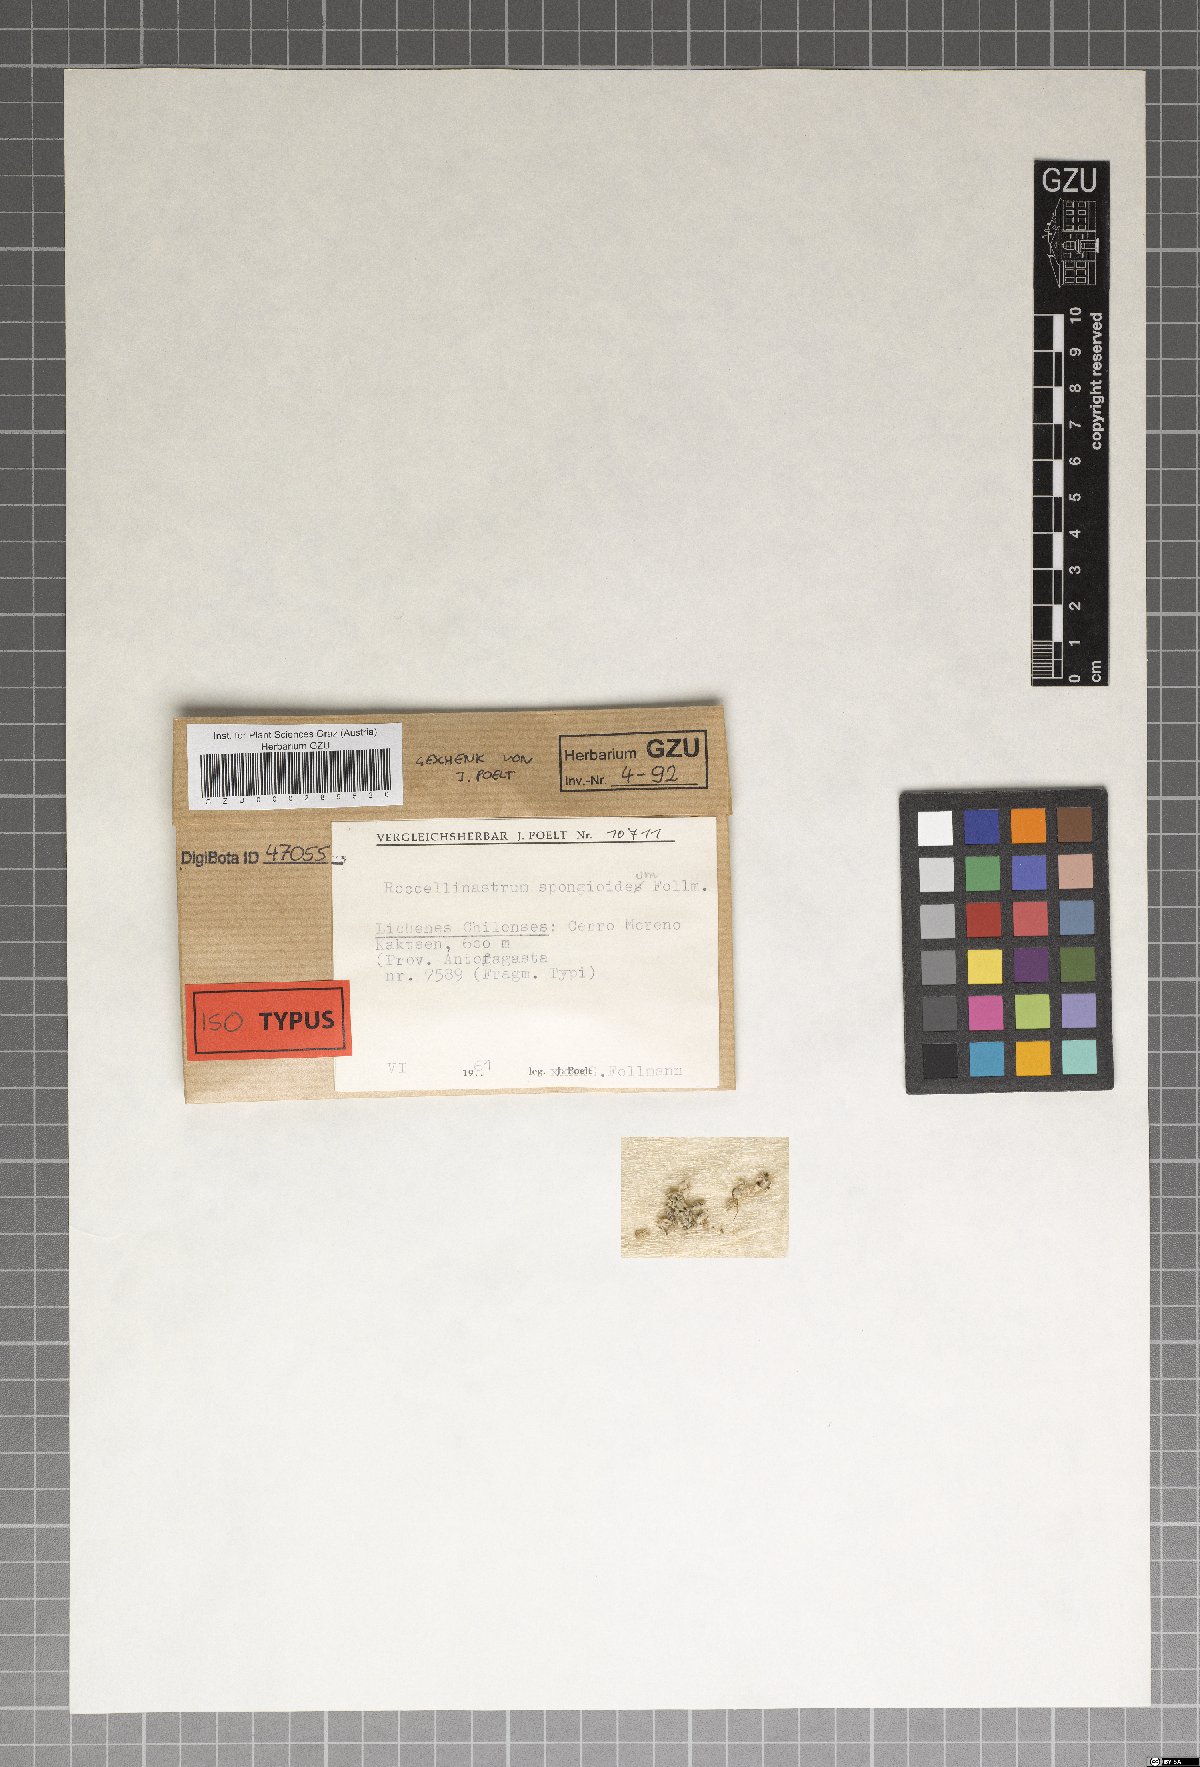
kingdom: Fungi
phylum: Ascomycota
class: Lecanoromycetes
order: Lecanorales
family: Byssolomataceae
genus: Roccellinastrum
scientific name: Roccellinastrum spongoideum
